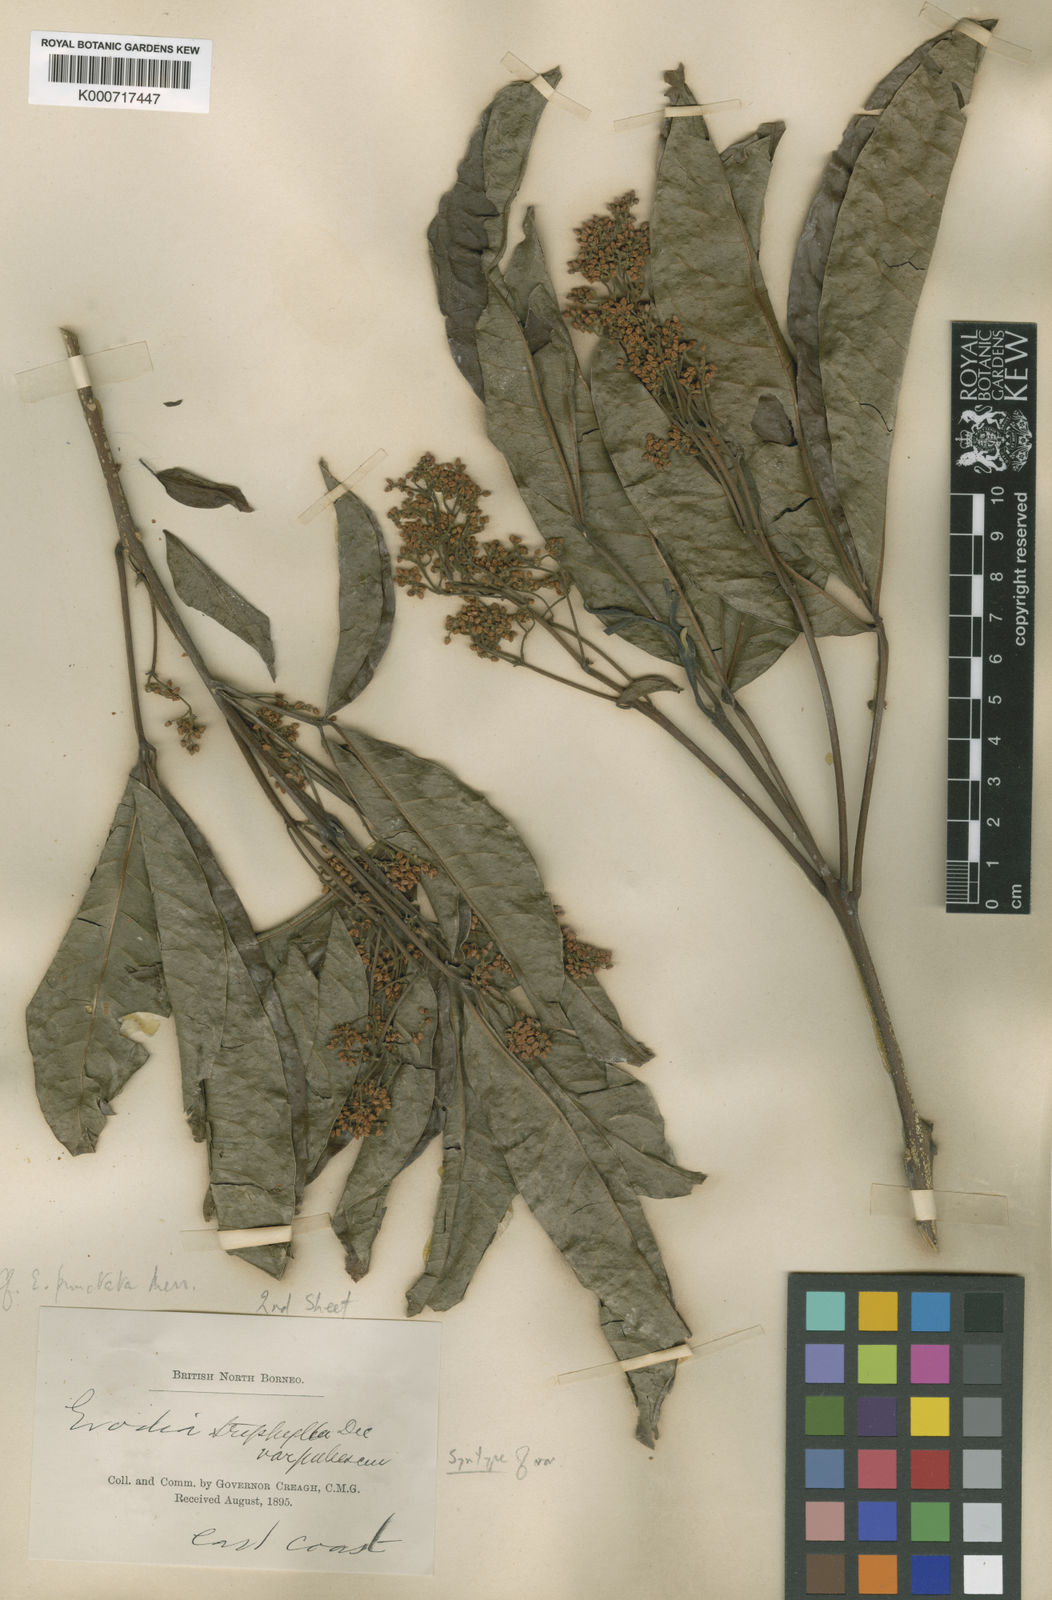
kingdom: Plantae
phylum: Tracheophyta
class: Magnoliopsida
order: Sapindales
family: Rutaceae
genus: Melicope
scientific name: Melicope
